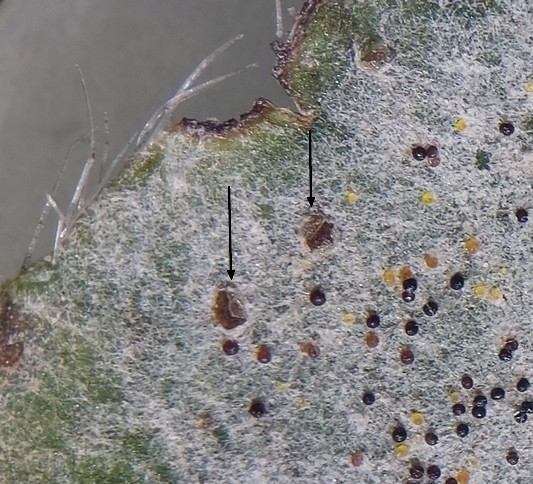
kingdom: Fungi
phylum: Basidiomycota
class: Pucciniomycetes
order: Pucciniales
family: Pucciniaceae
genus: Uromyces
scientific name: Uromyces fallens
